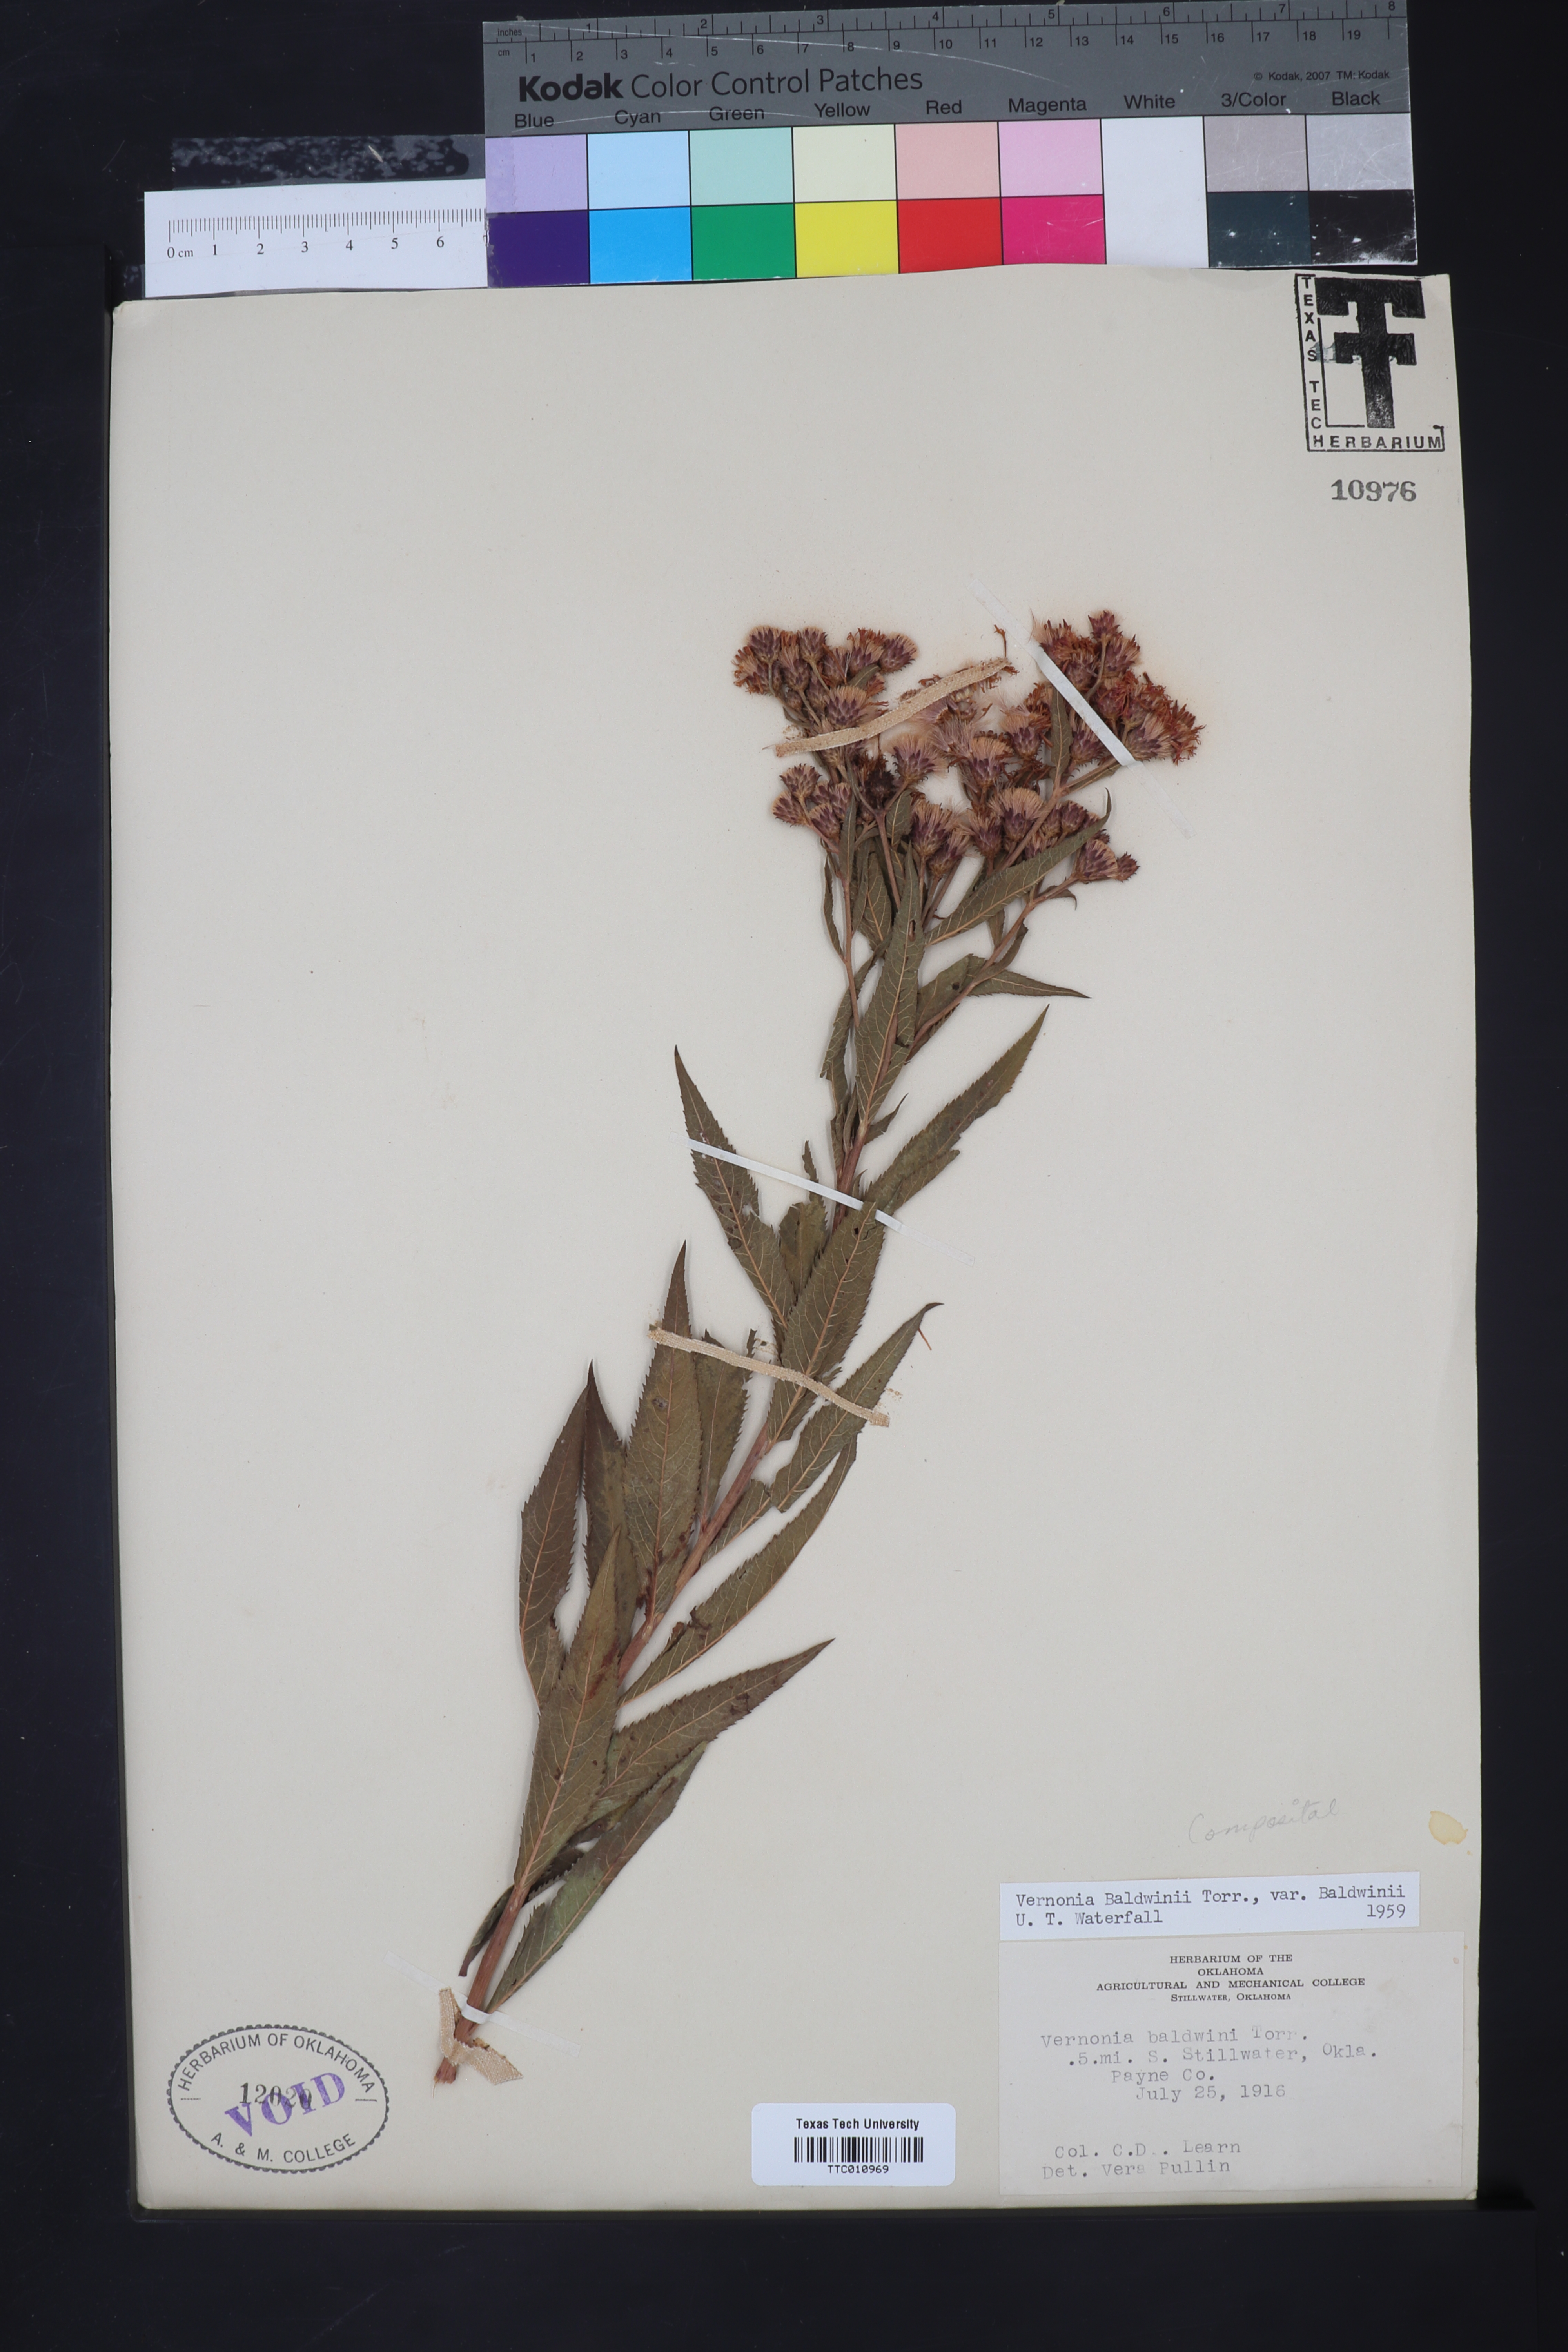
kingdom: Plantae
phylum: Tracheophyta
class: Magnoliopsida
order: Asterales
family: Asteraceae
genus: Vernonia
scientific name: Vernonia baldwinii
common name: Western ironweed
